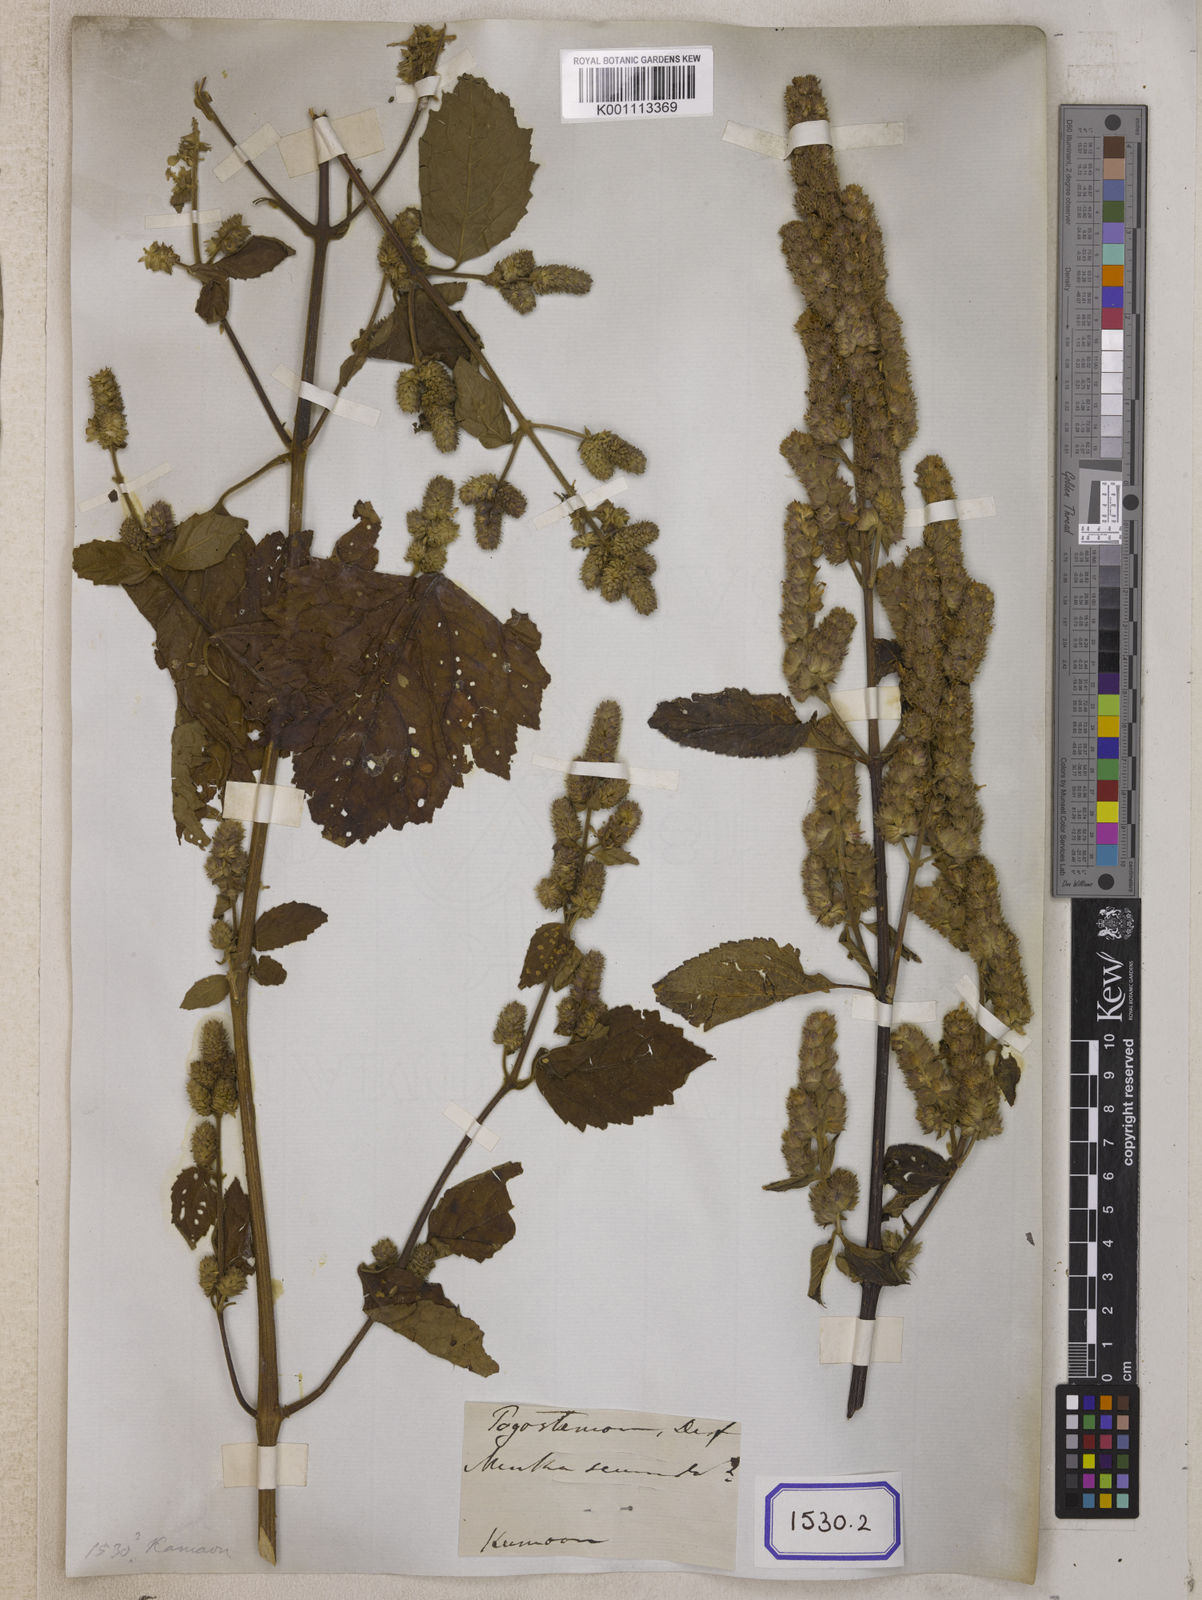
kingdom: Plantae
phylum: Tracheophyta
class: Magnoliopsida
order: Lamiales
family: Lamiaceae
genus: Pogostemon
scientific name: Pogostemon
